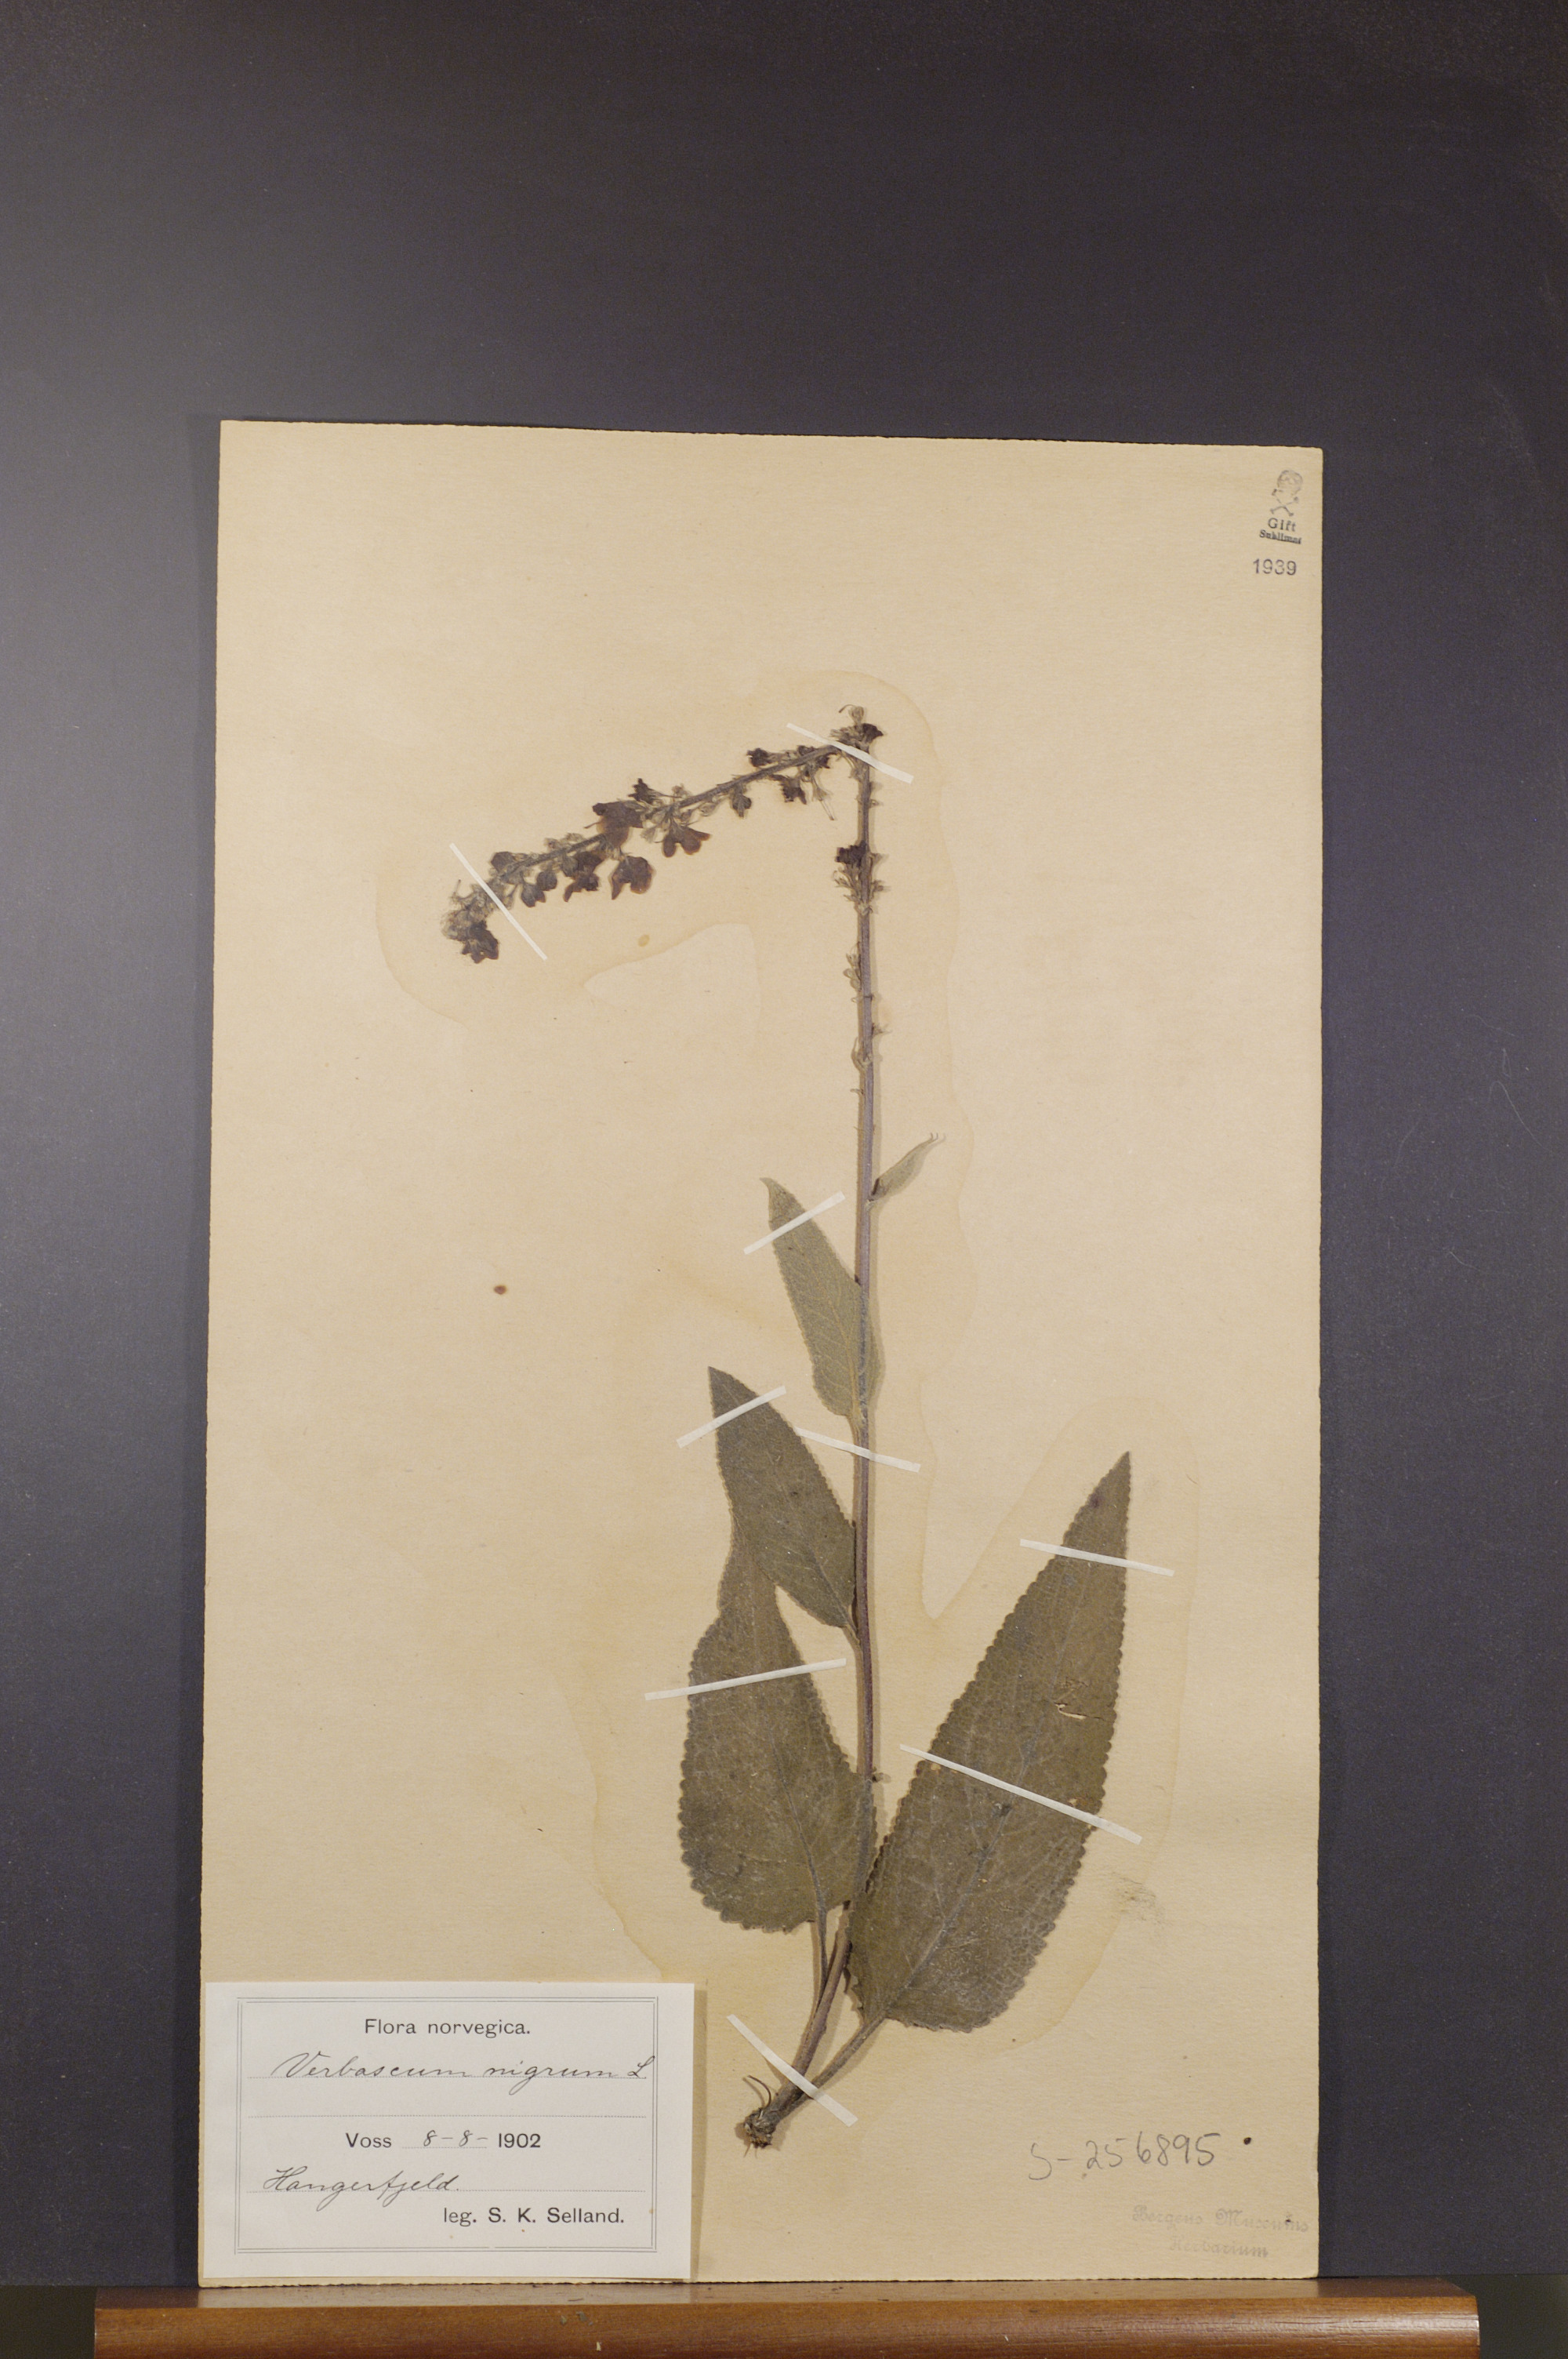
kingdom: Plantae
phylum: Tracheophyta
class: Magnoliopsida
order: Lamiales
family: Scrophulariaceae
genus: Verbascum
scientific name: Verbascum nigrum
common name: Dark mullein
